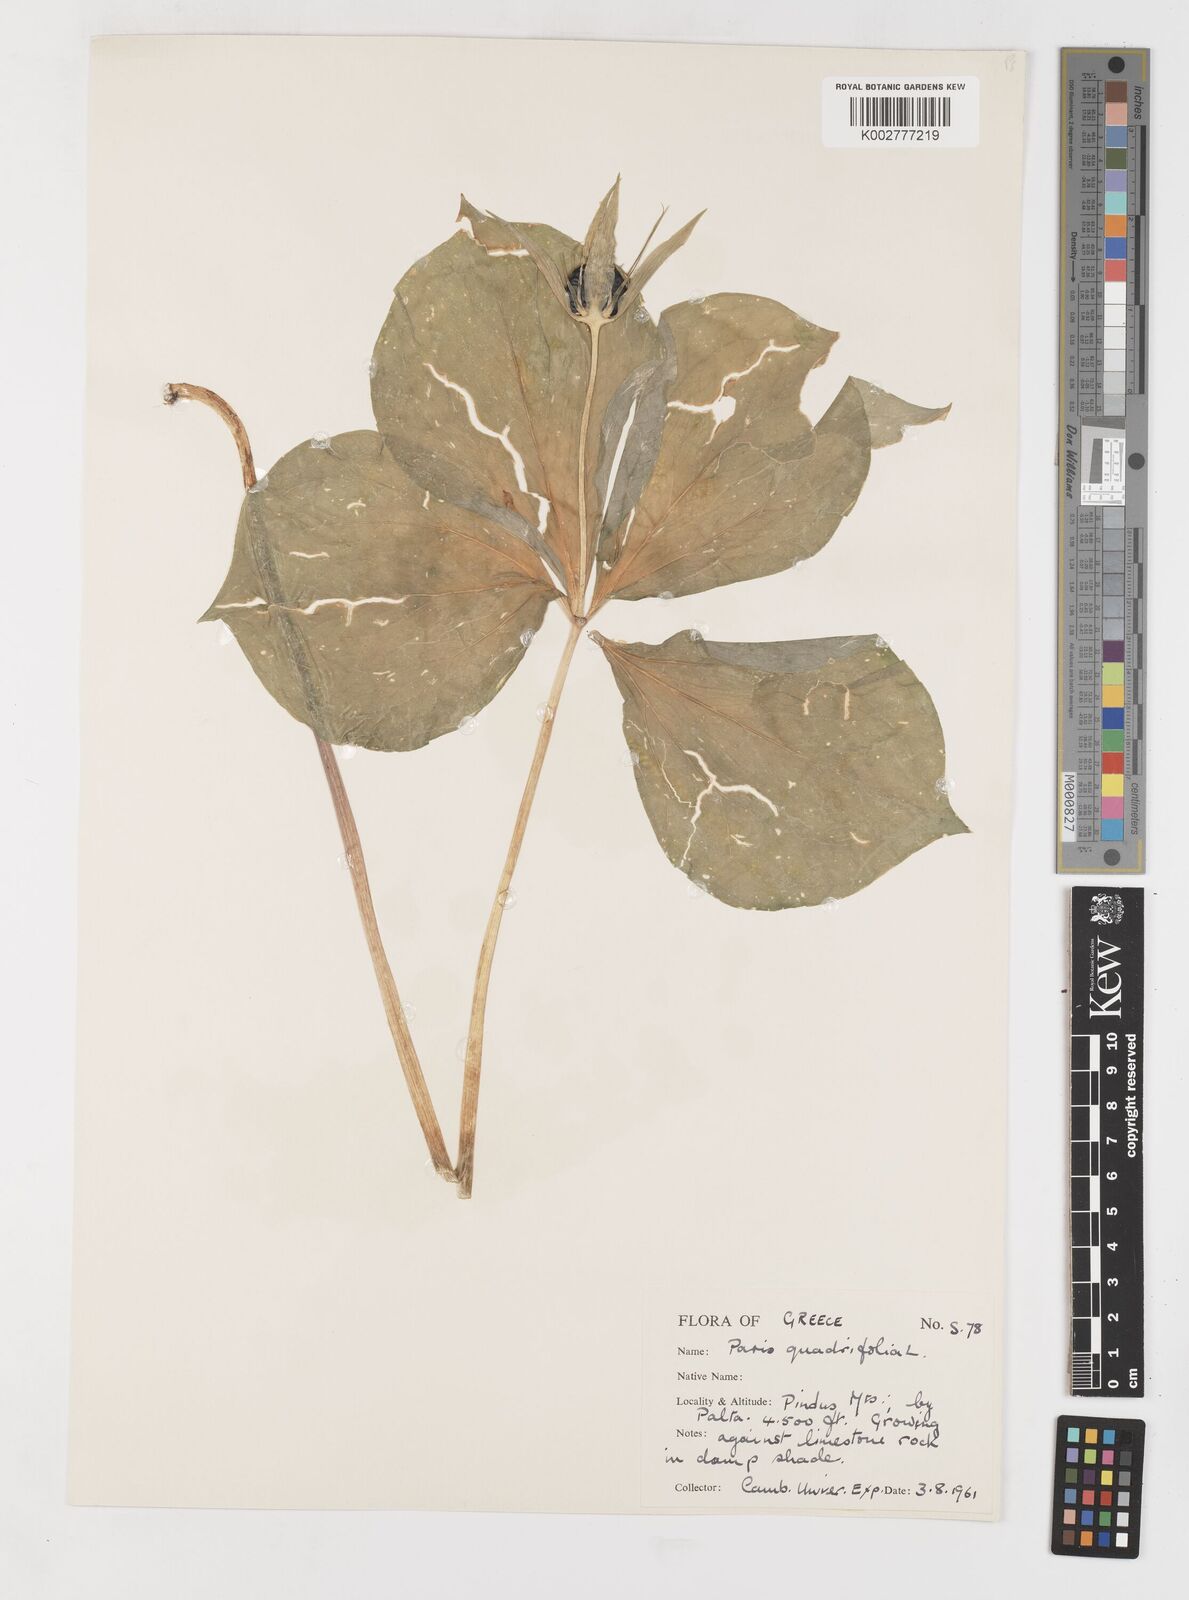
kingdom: Plantae
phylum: Tracheophyta
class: Liliopsida
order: Liliales
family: Melanthiaceae
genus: Paris
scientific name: Paris quadrifolia
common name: Herb-paris
